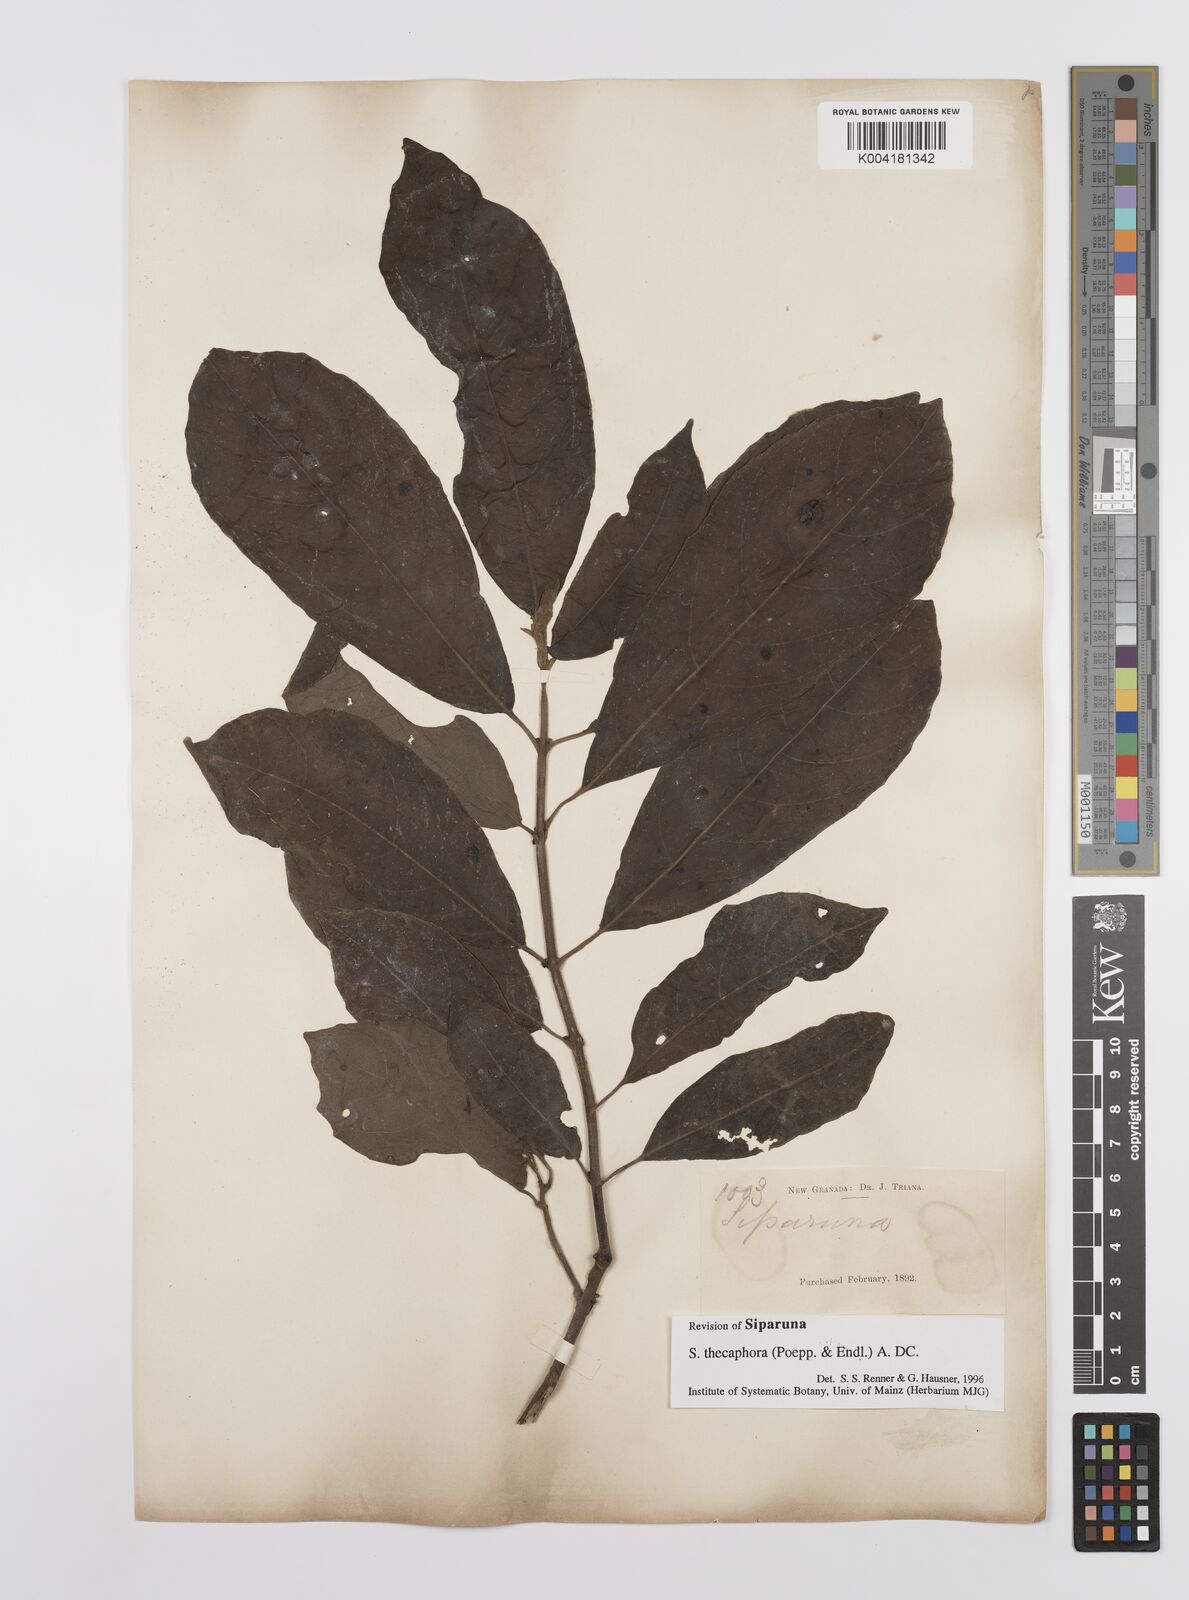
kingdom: Plantae
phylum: Tracheophyta
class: Magnoliopsida
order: Laurales
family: Siparunaceae
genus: Siparuna
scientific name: Siparuna thecaphora
